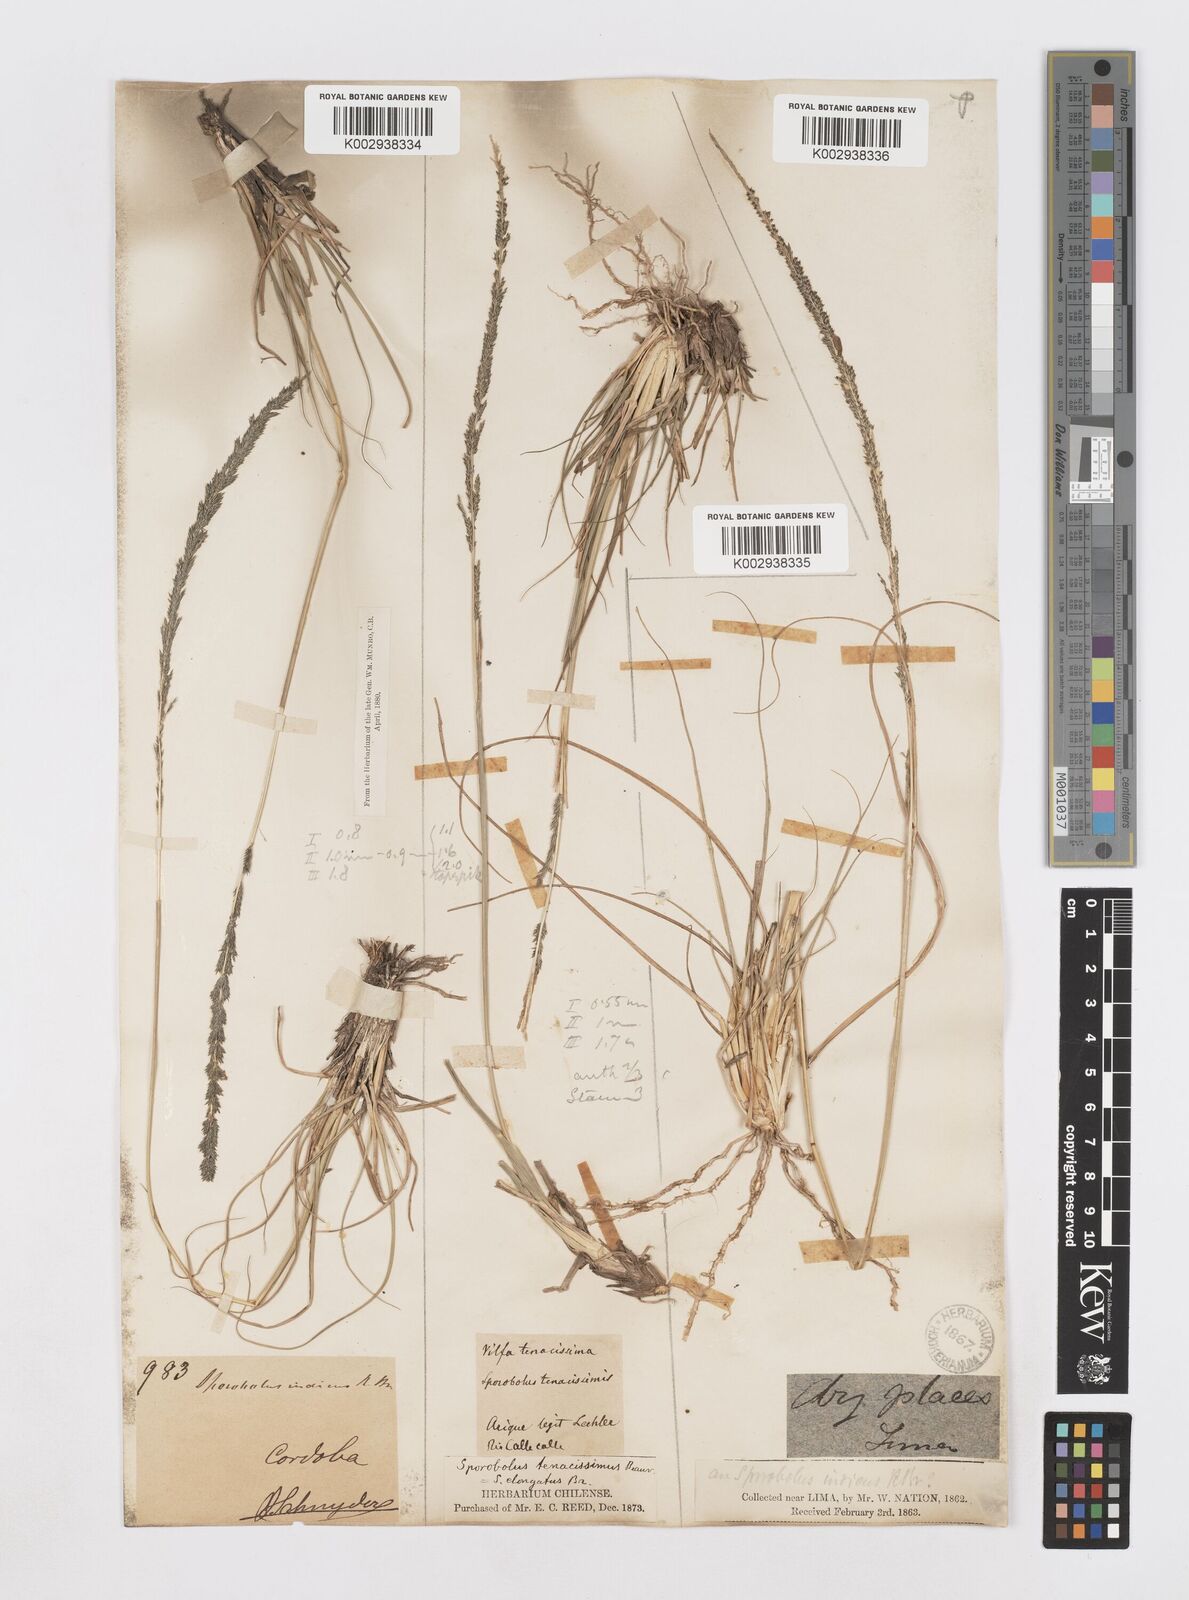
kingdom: Plantae
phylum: Tracheophyta
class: Liliopsida
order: Poales
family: Poaceae
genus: Sporobolus
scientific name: Sporobolus minor
